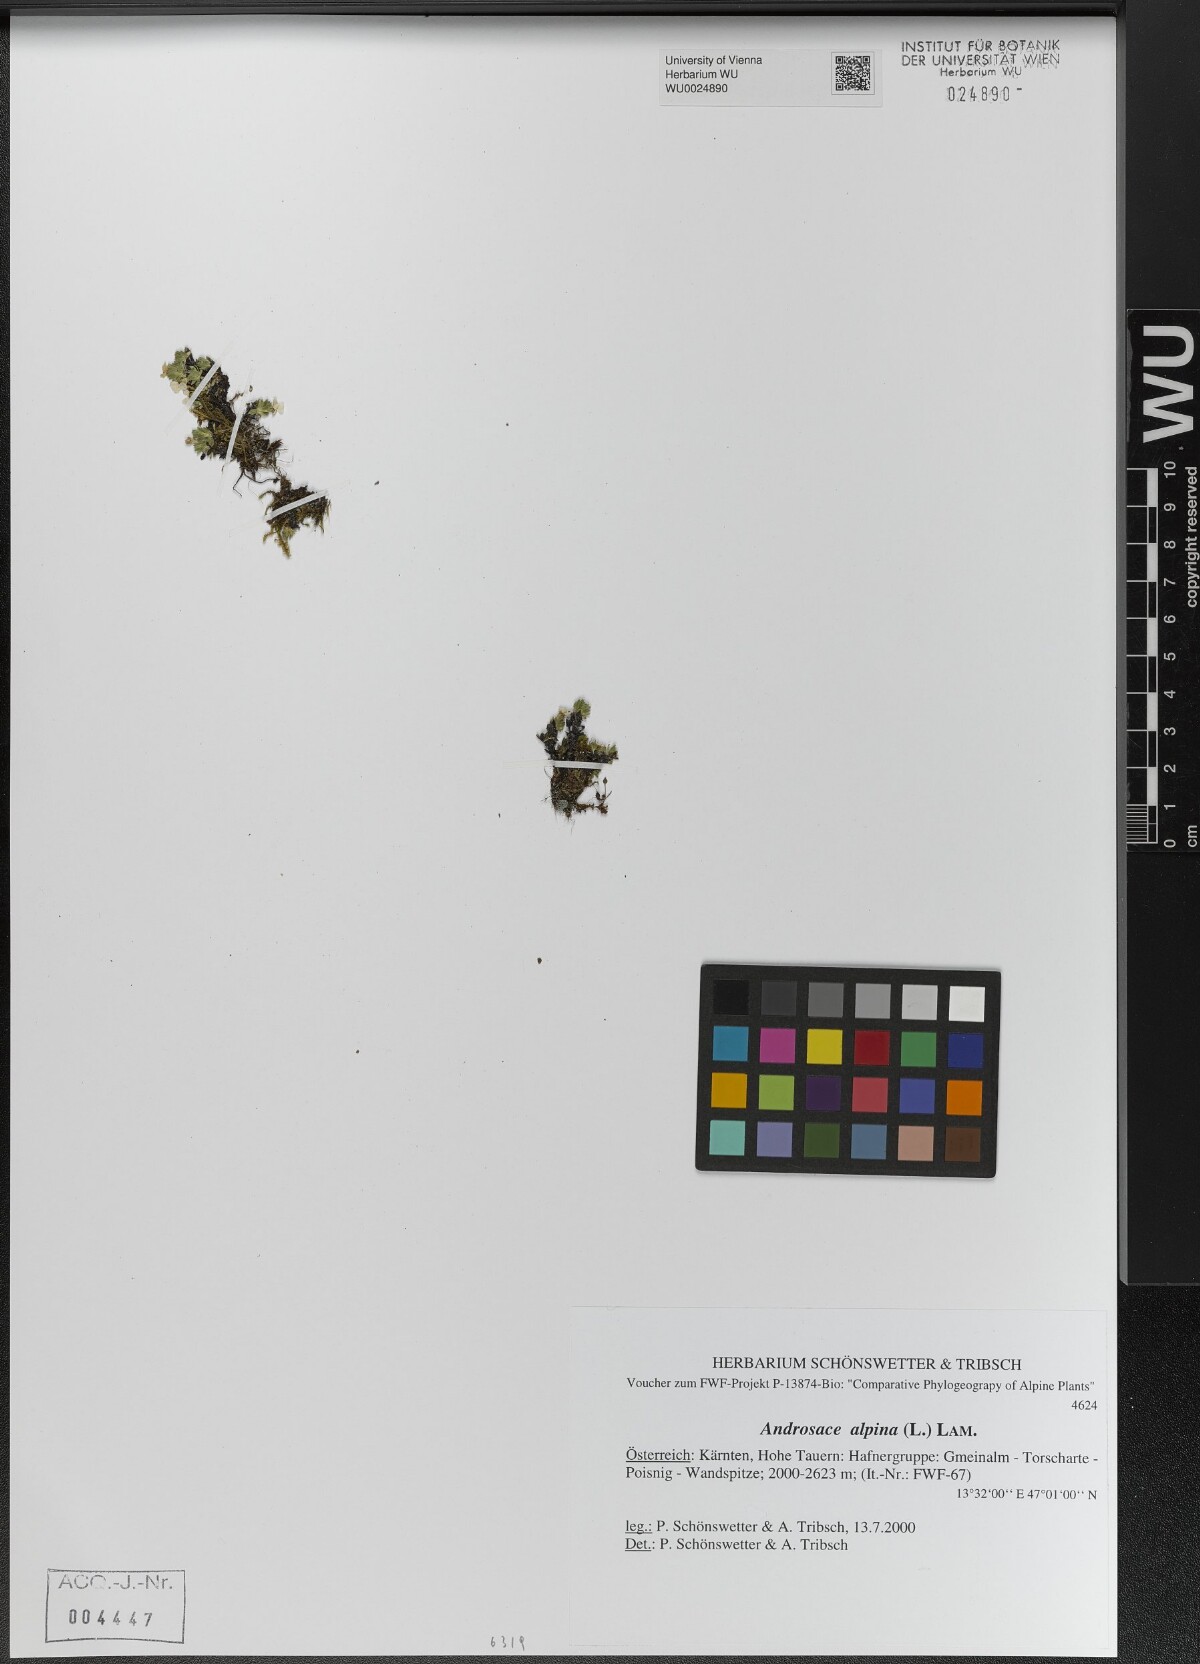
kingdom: Plantae
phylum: Tracheophyta
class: Magnoliopsida
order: Ericales
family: Primulaceae
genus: Androsace
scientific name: Androsace alpina
